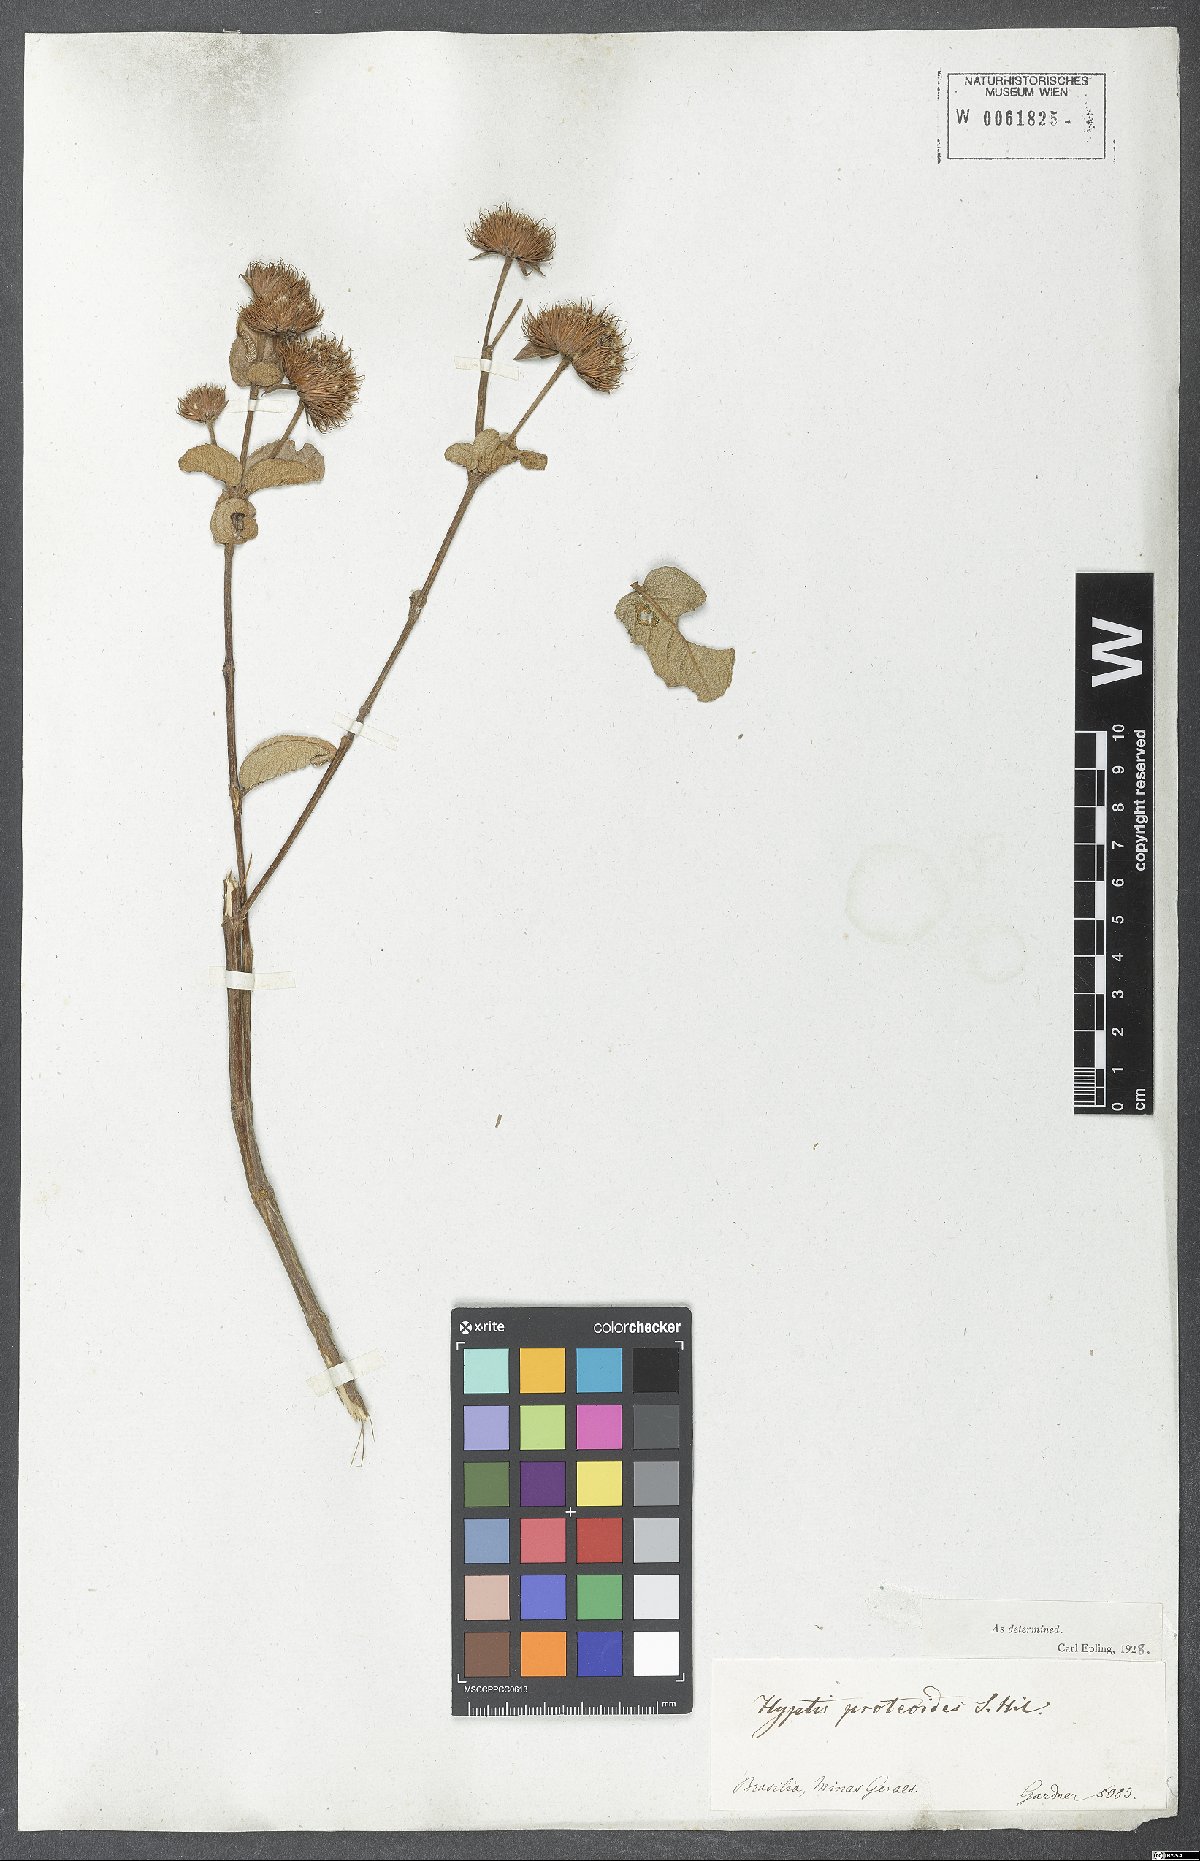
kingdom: Plantae
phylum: Tracheophyta
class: Magnoliopsida
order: Lamiales
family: Lamiaceae
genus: Hyptis
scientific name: Hyptis proteoides
